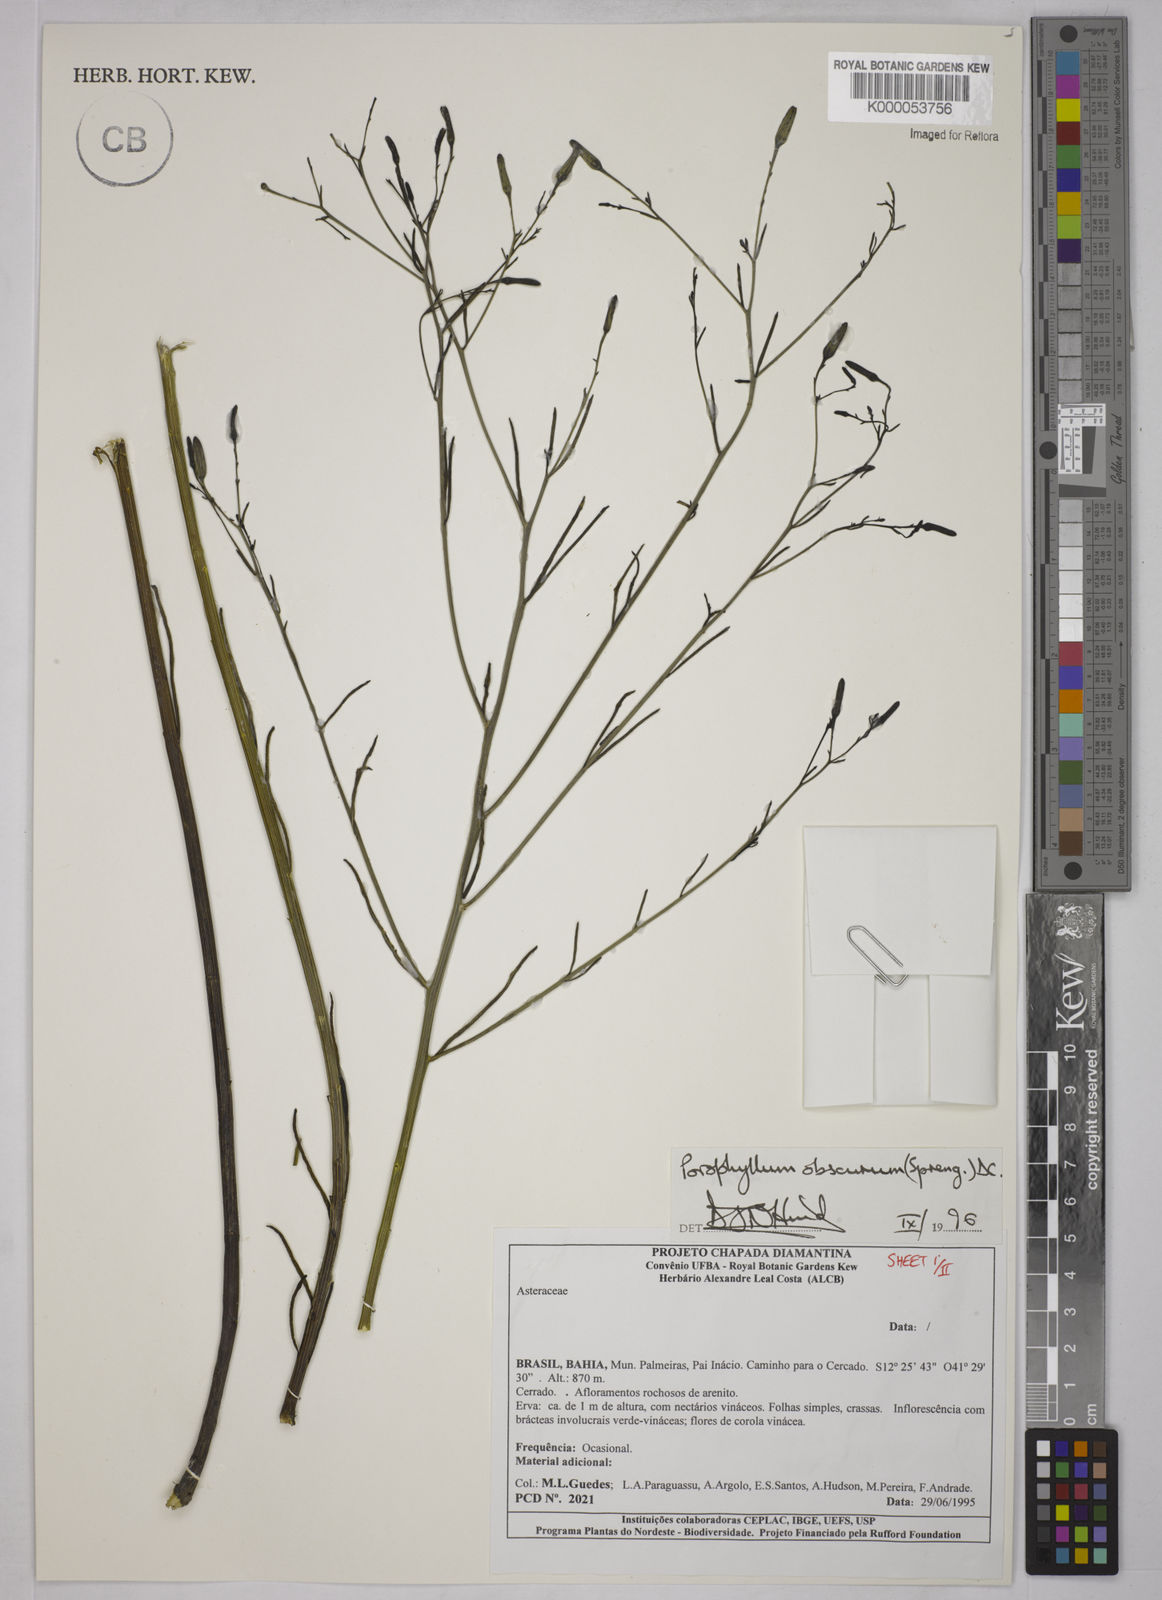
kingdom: Plantae
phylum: Tracheophyta
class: Magnoliopsida
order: Asterales
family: Asteraceae
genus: Porophyllum
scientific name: Porophyllum obscurum
